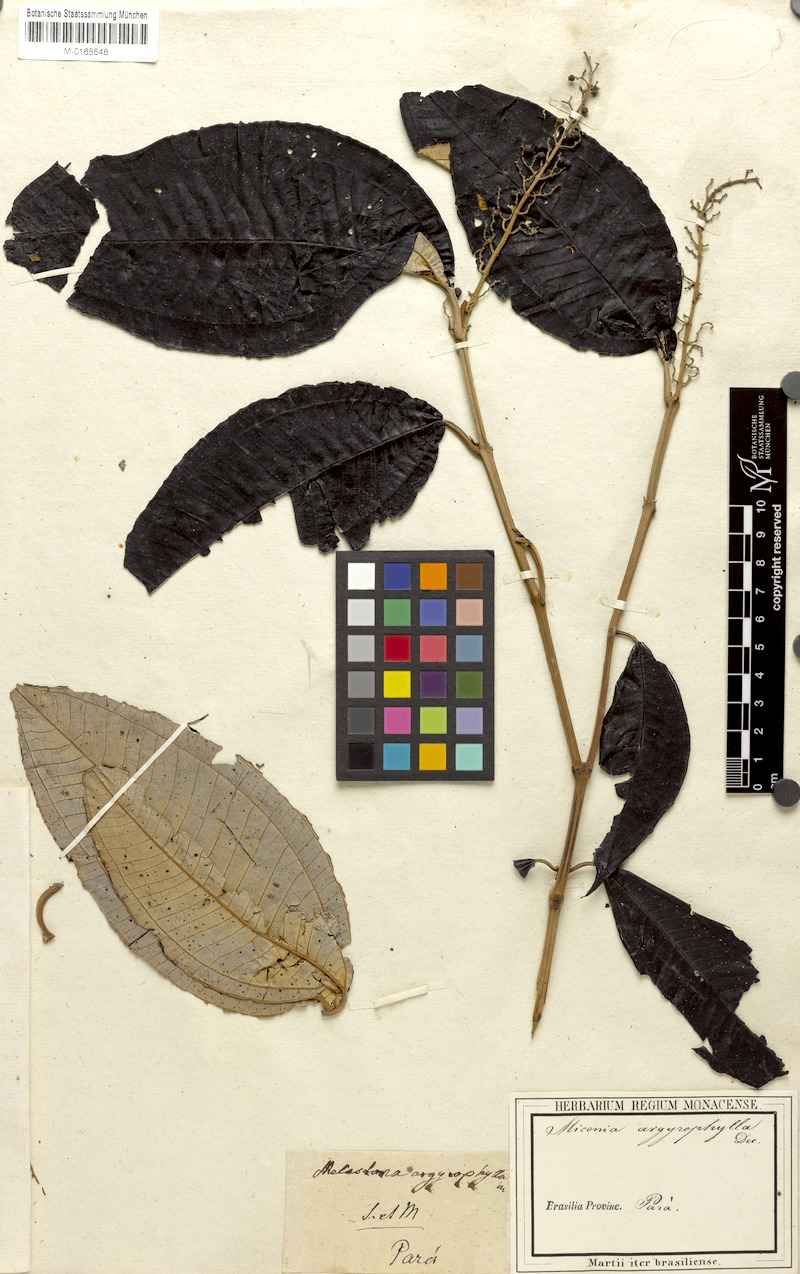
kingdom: Plantae
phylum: Tracheophyta
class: Magnoliopsida
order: Myrtales
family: Melastomataceae
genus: Miconia
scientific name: Miconia argyrophylla
